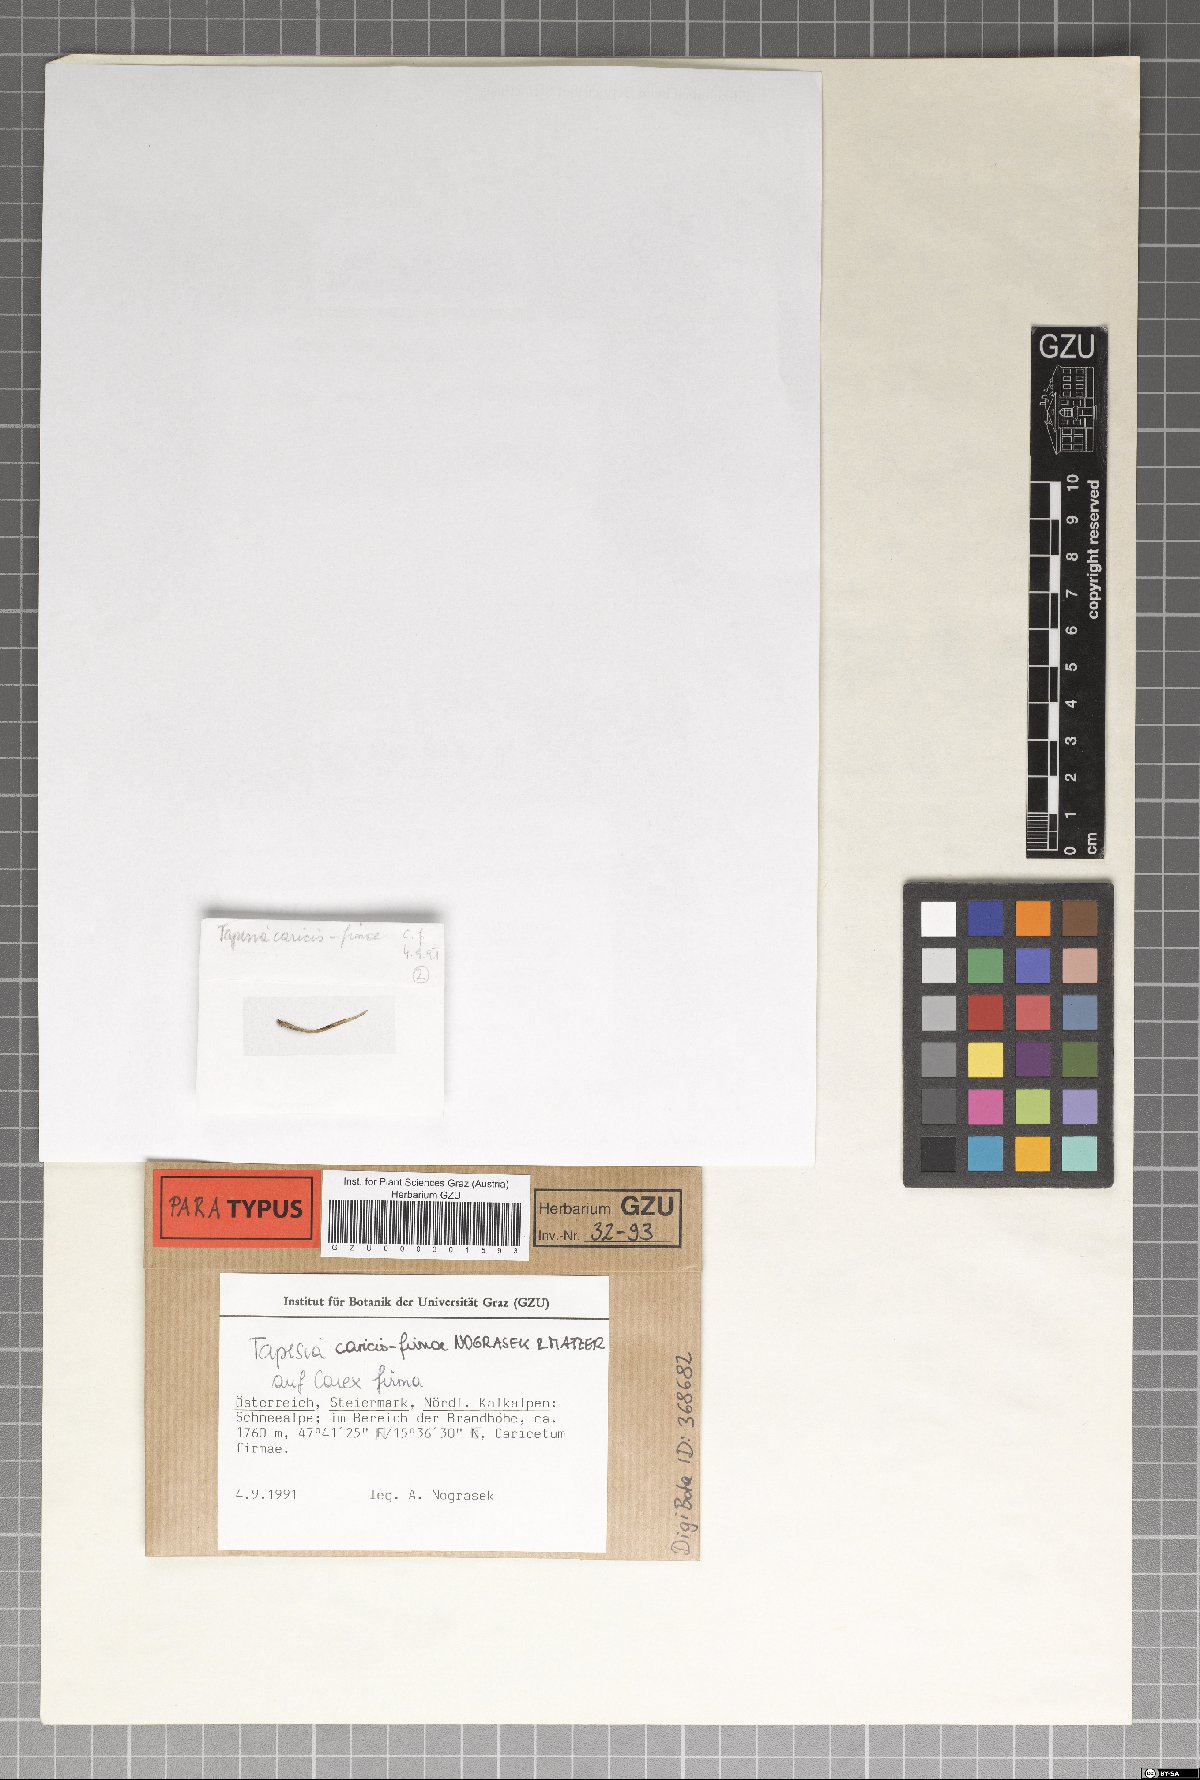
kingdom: Fungi
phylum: Ascomycota
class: Leotiomycetes
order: Helotiales
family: Mollisiaceae
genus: Tapesia
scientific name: Tapesia caricis-firmae
